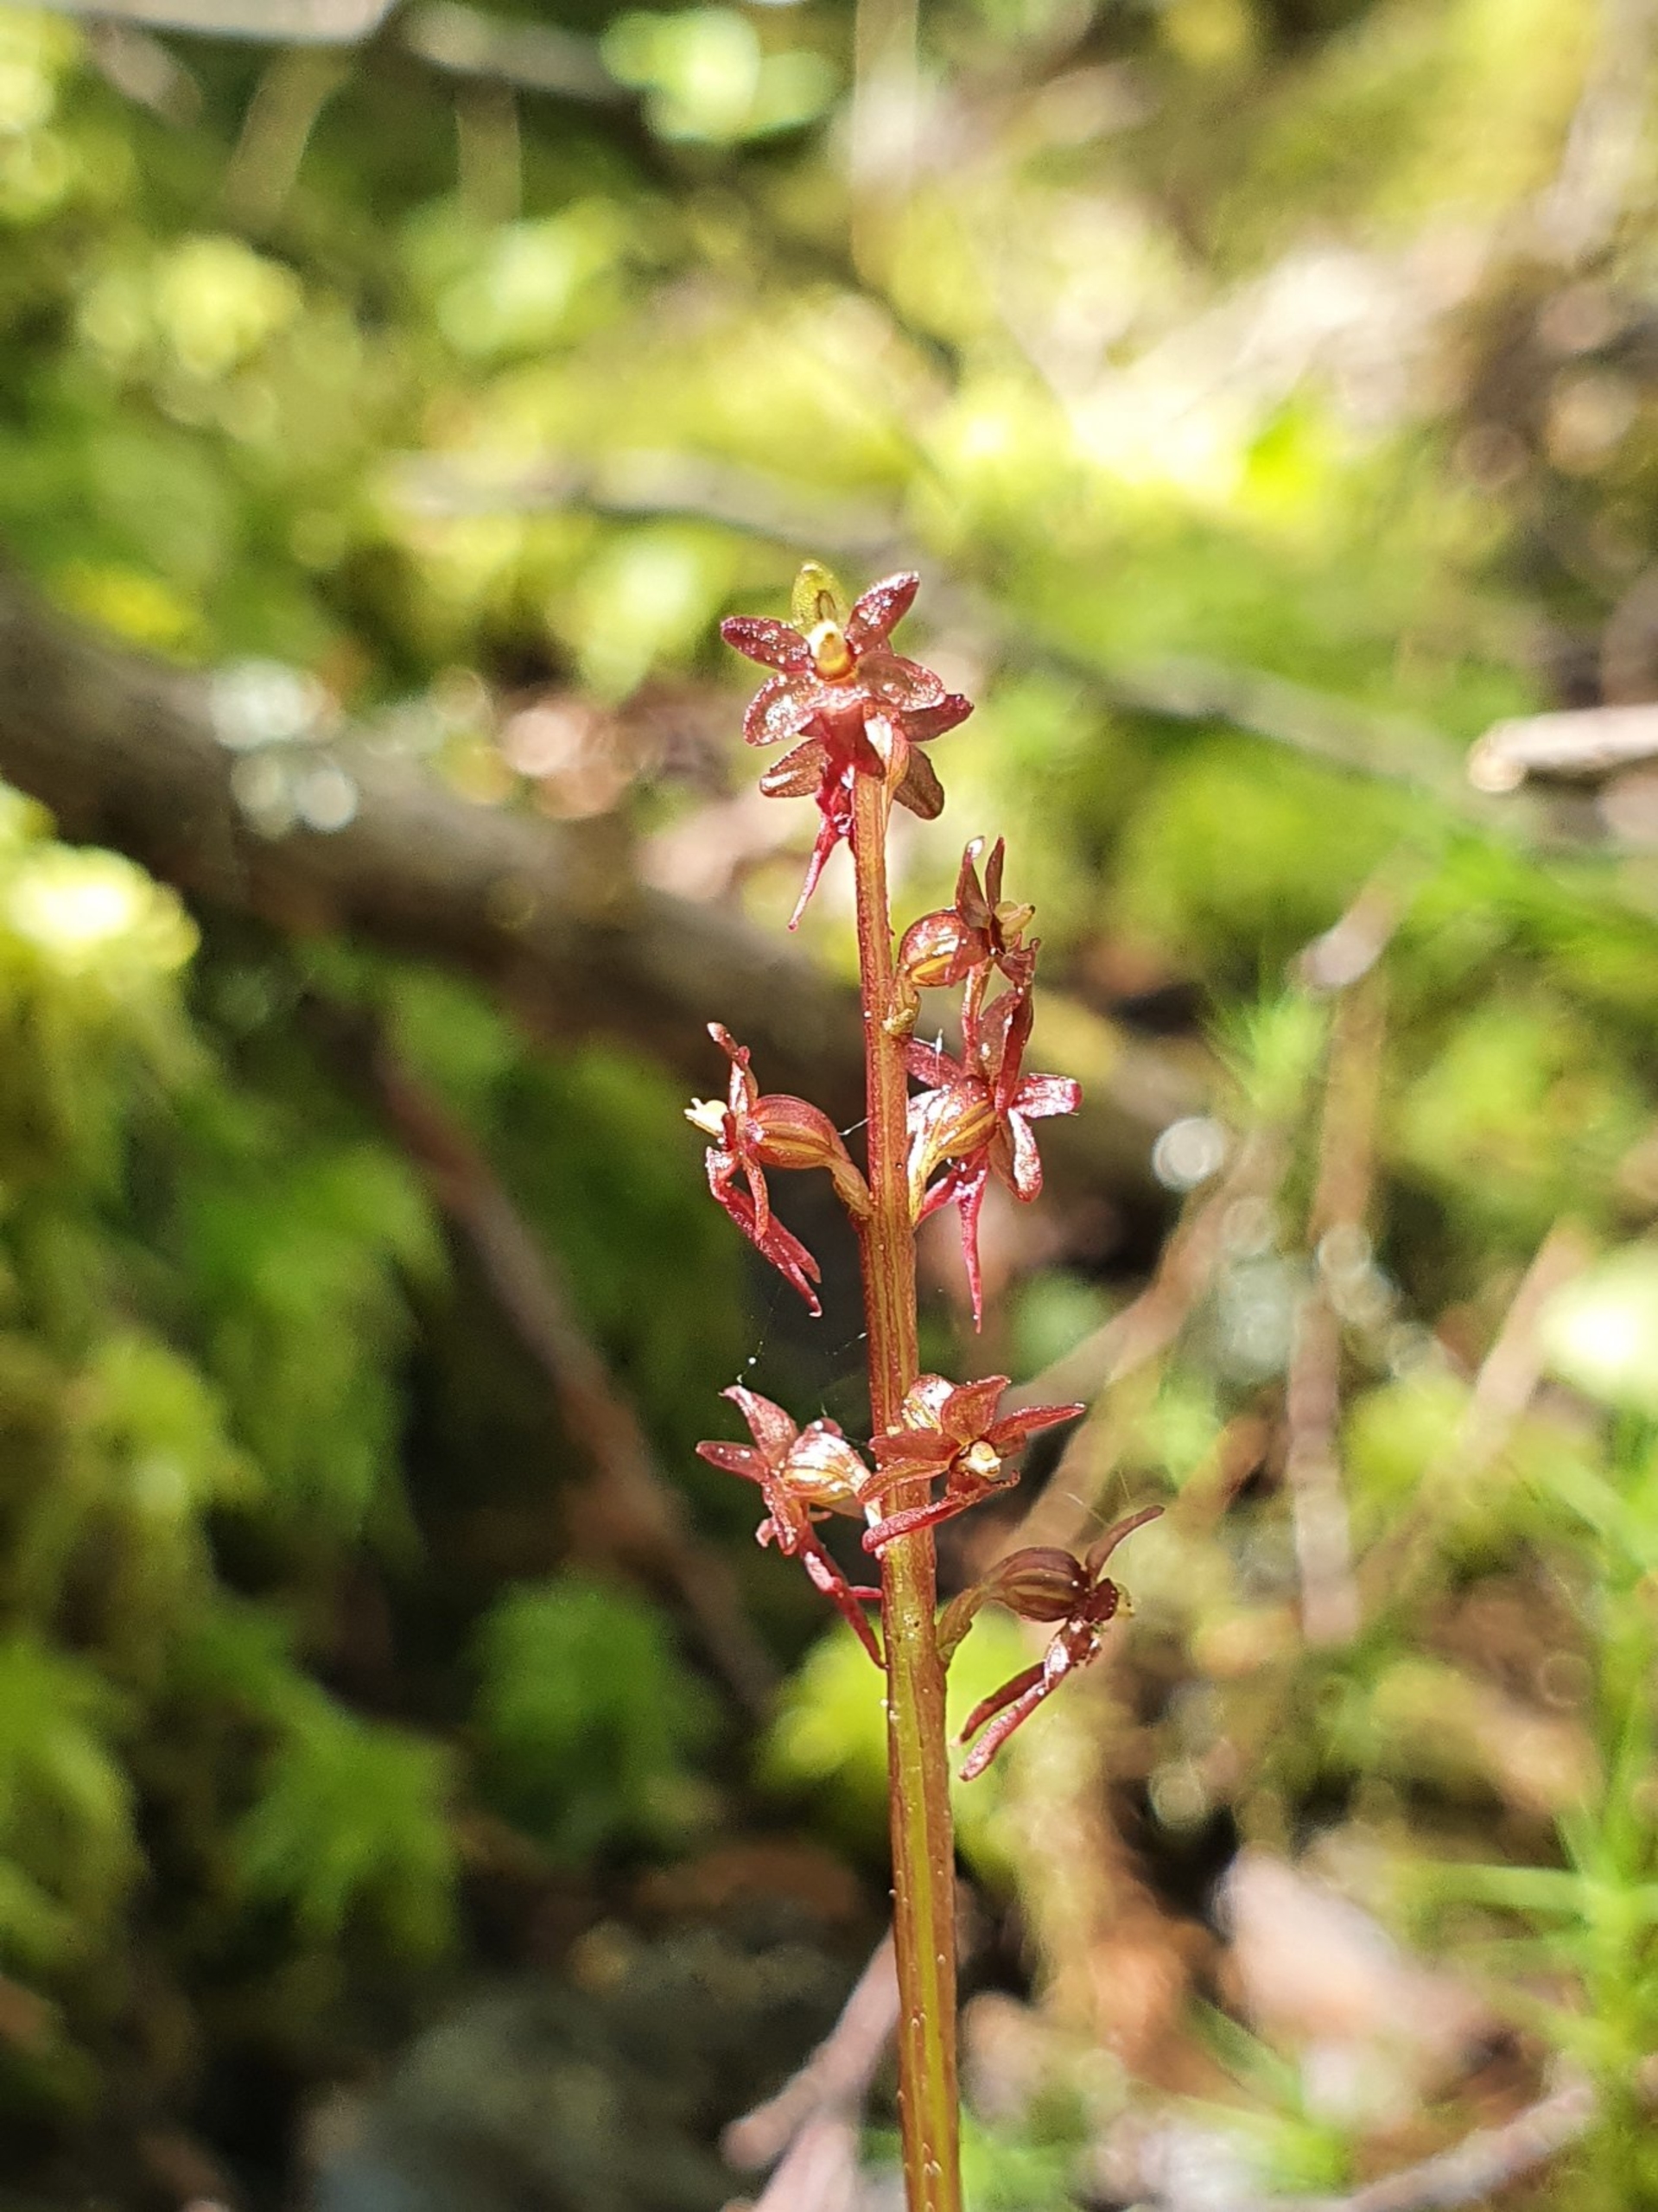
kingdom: Plantae
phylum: Tracheophyta
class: Liliopsida
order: Asparagales
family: Orchidaceae
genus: Neottia
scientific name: Neottia cordata
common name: Hjertebladet fliglæbe
